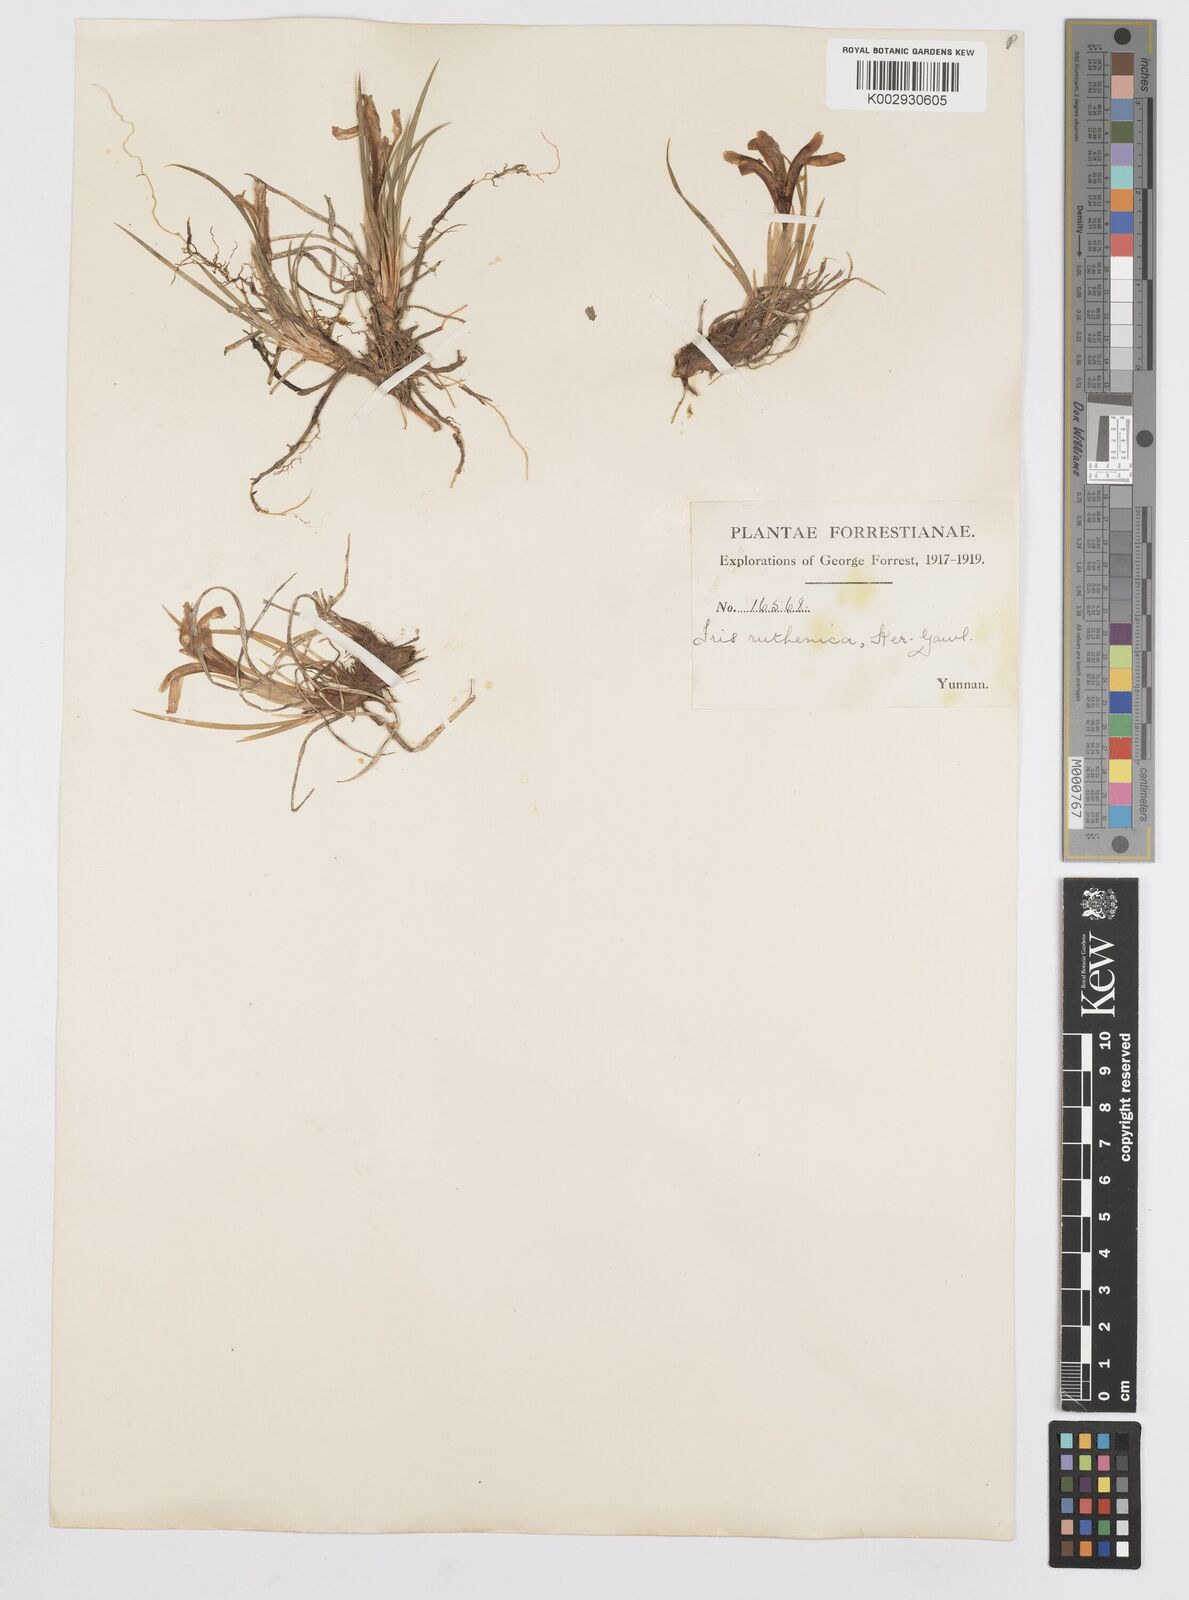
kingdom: Plantae
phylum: Tracheophyta
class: Liliopsida
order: Asparagales
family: Iridaceae
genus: Iris
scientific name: Iris ruthenica
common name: Purple-bract iris
